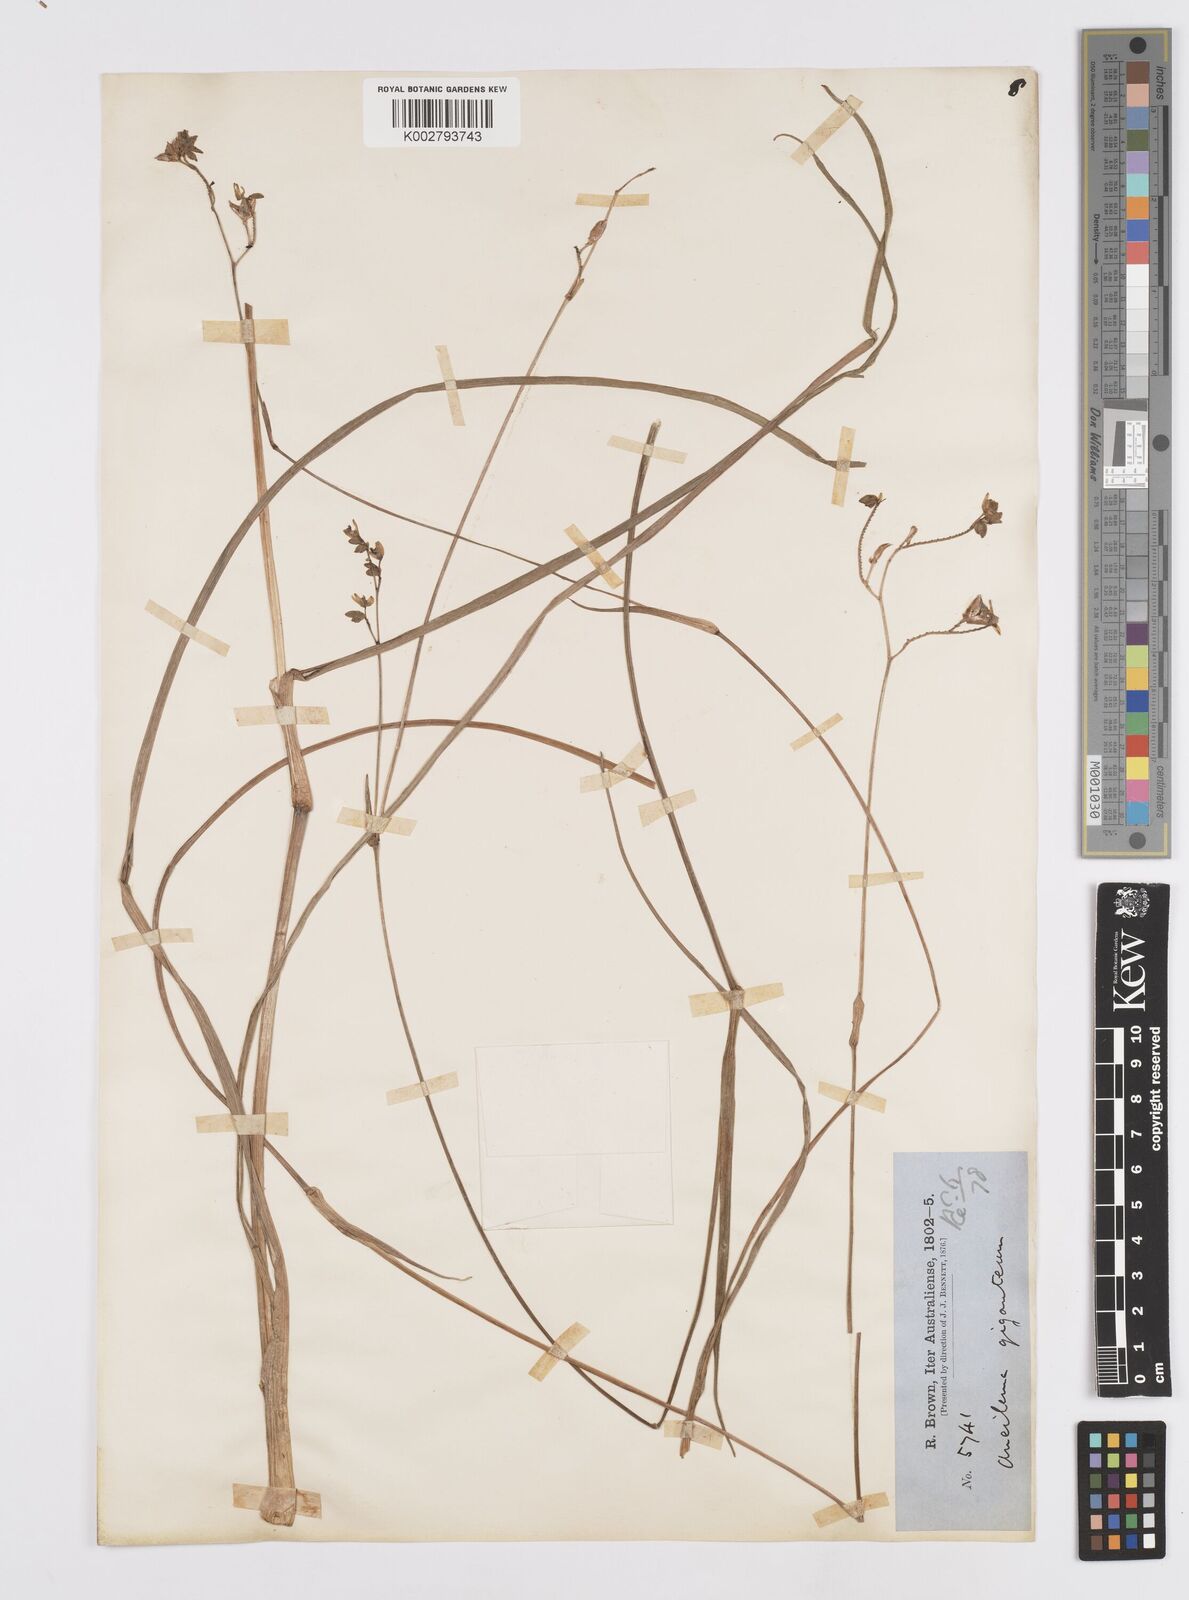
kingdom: Plantae
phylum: Tracheophyta
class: Liliopsida
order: Commelinales
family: Commelinaceae
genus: Murdannia
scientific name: Murdannia gigantea
